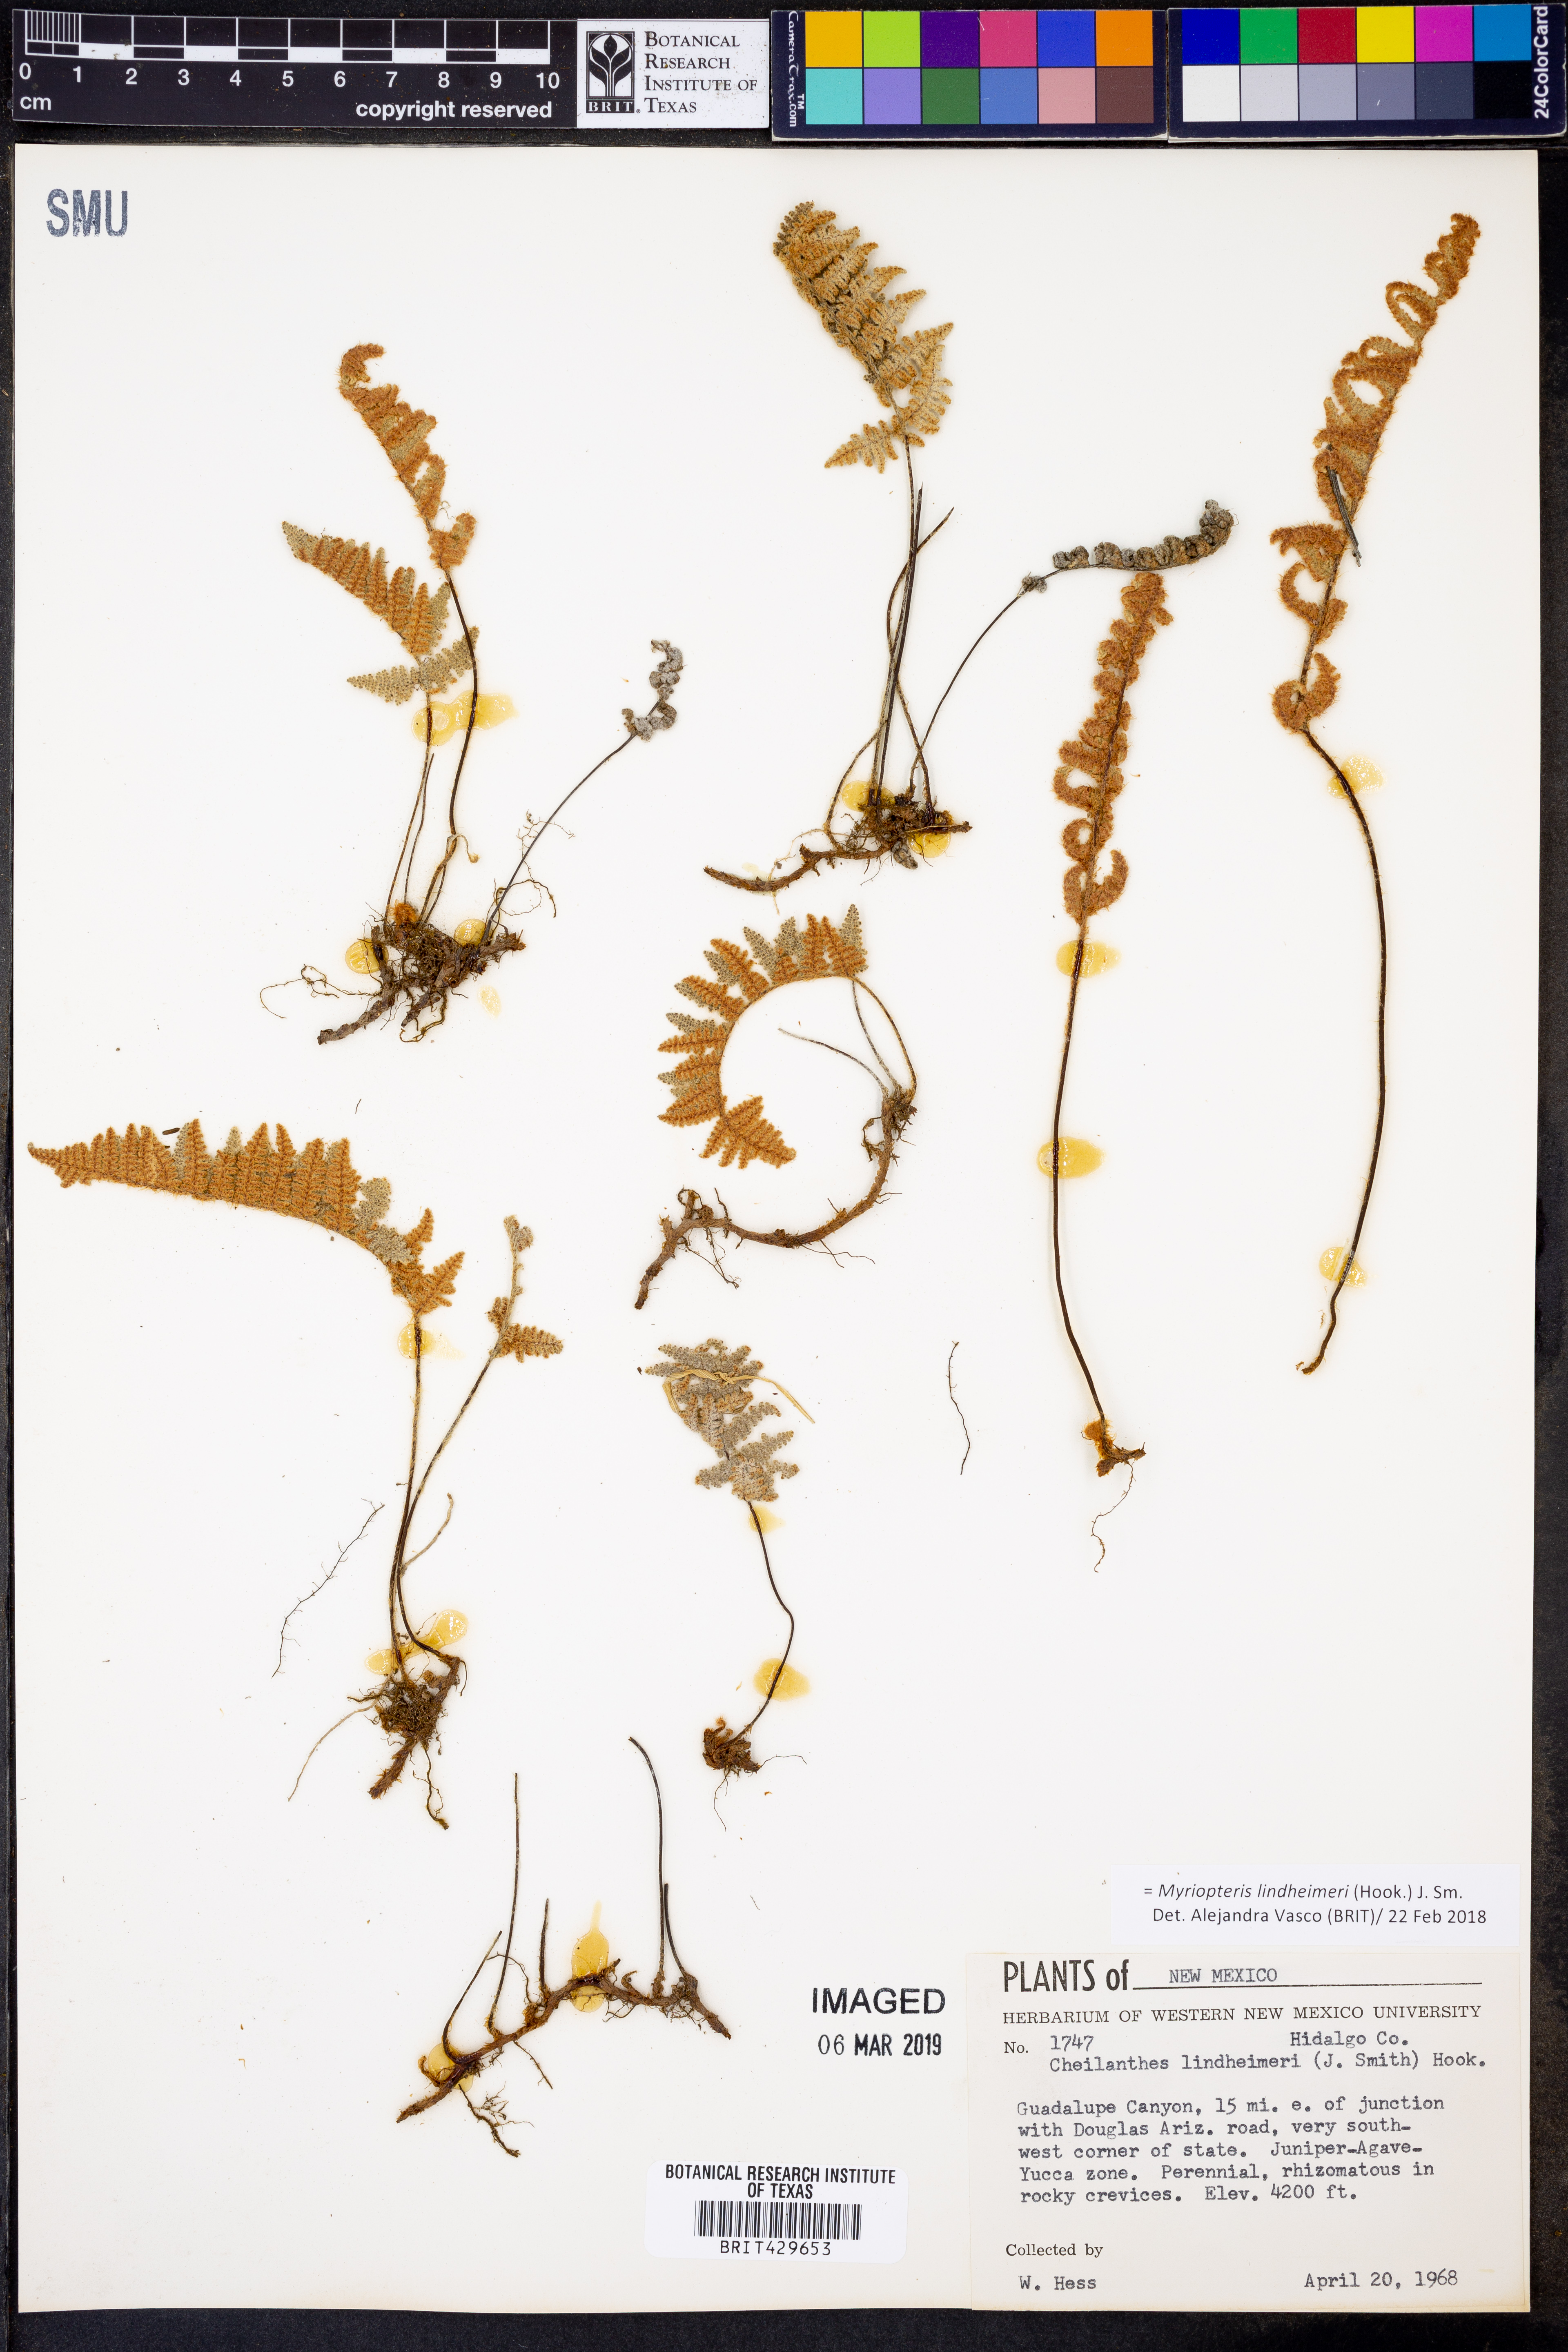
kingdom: Plantae
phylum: Tracheophyta
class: Polypodiopsida
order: Polypodiales
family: Pteridaceae
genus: Myriopteris
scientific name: Myriopteris lindheimeri
